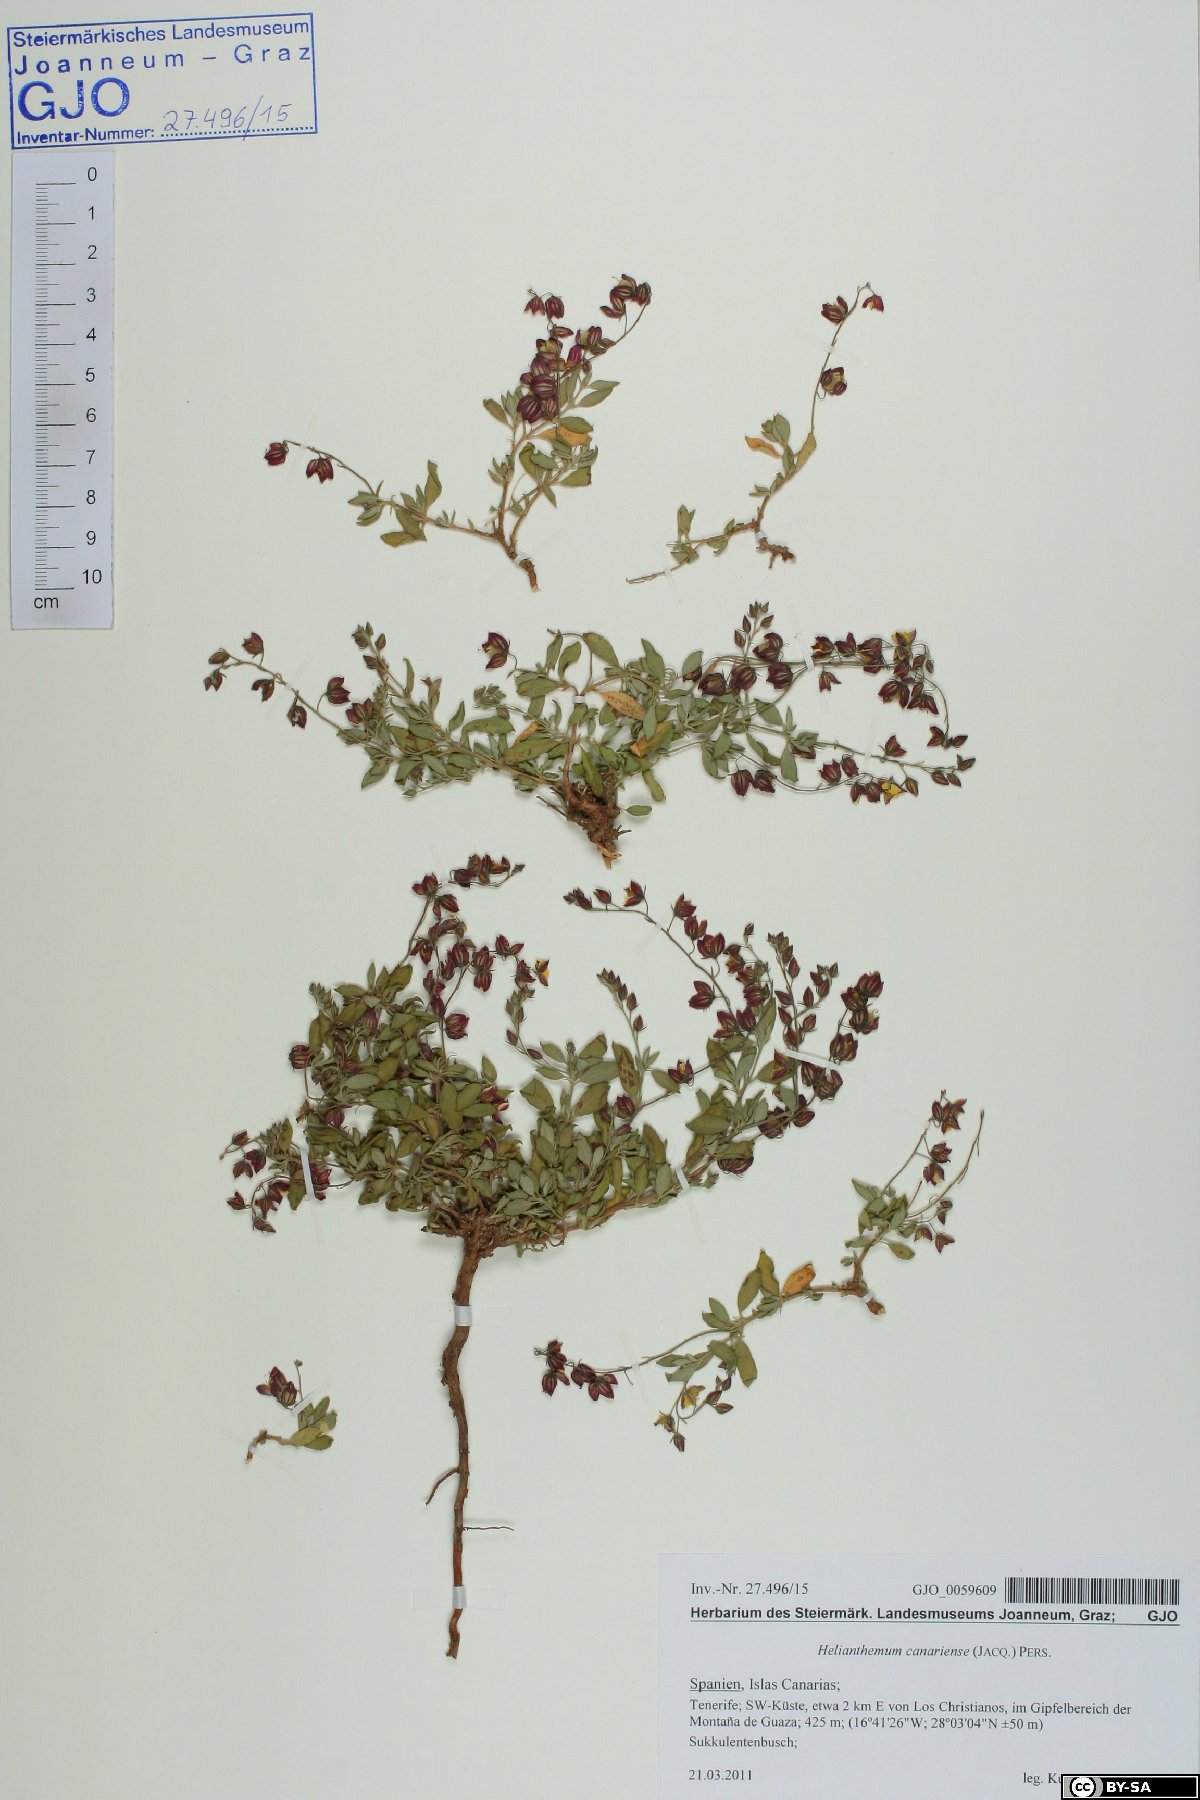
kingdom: Plantae
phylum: Tracheophyta
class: Magnoliopsida
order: Malvales
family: Cistaceae
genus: Helianthemum
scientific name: Helianthemum canariense
